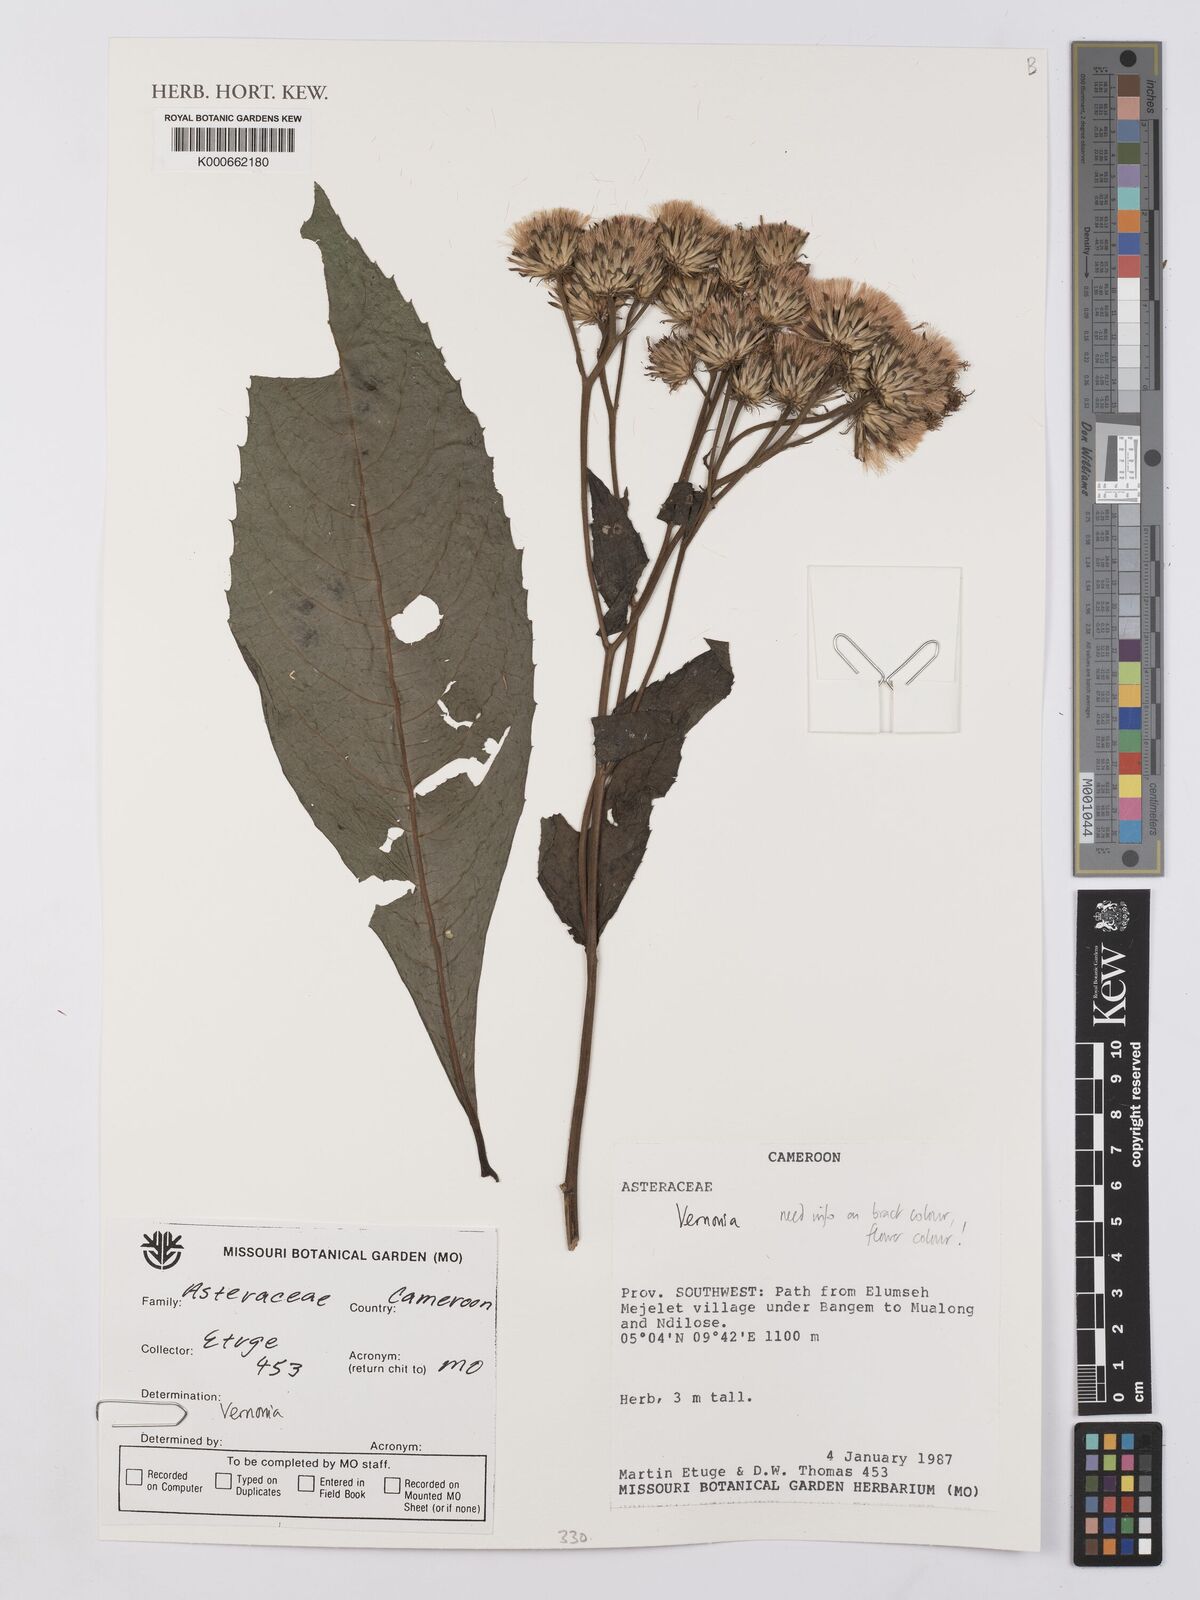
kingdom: Plantae
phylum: Tracheophyta
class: Magnoliopsida
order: Asterales
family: Asteraceae
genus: Vernonia
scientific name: Vernonia
